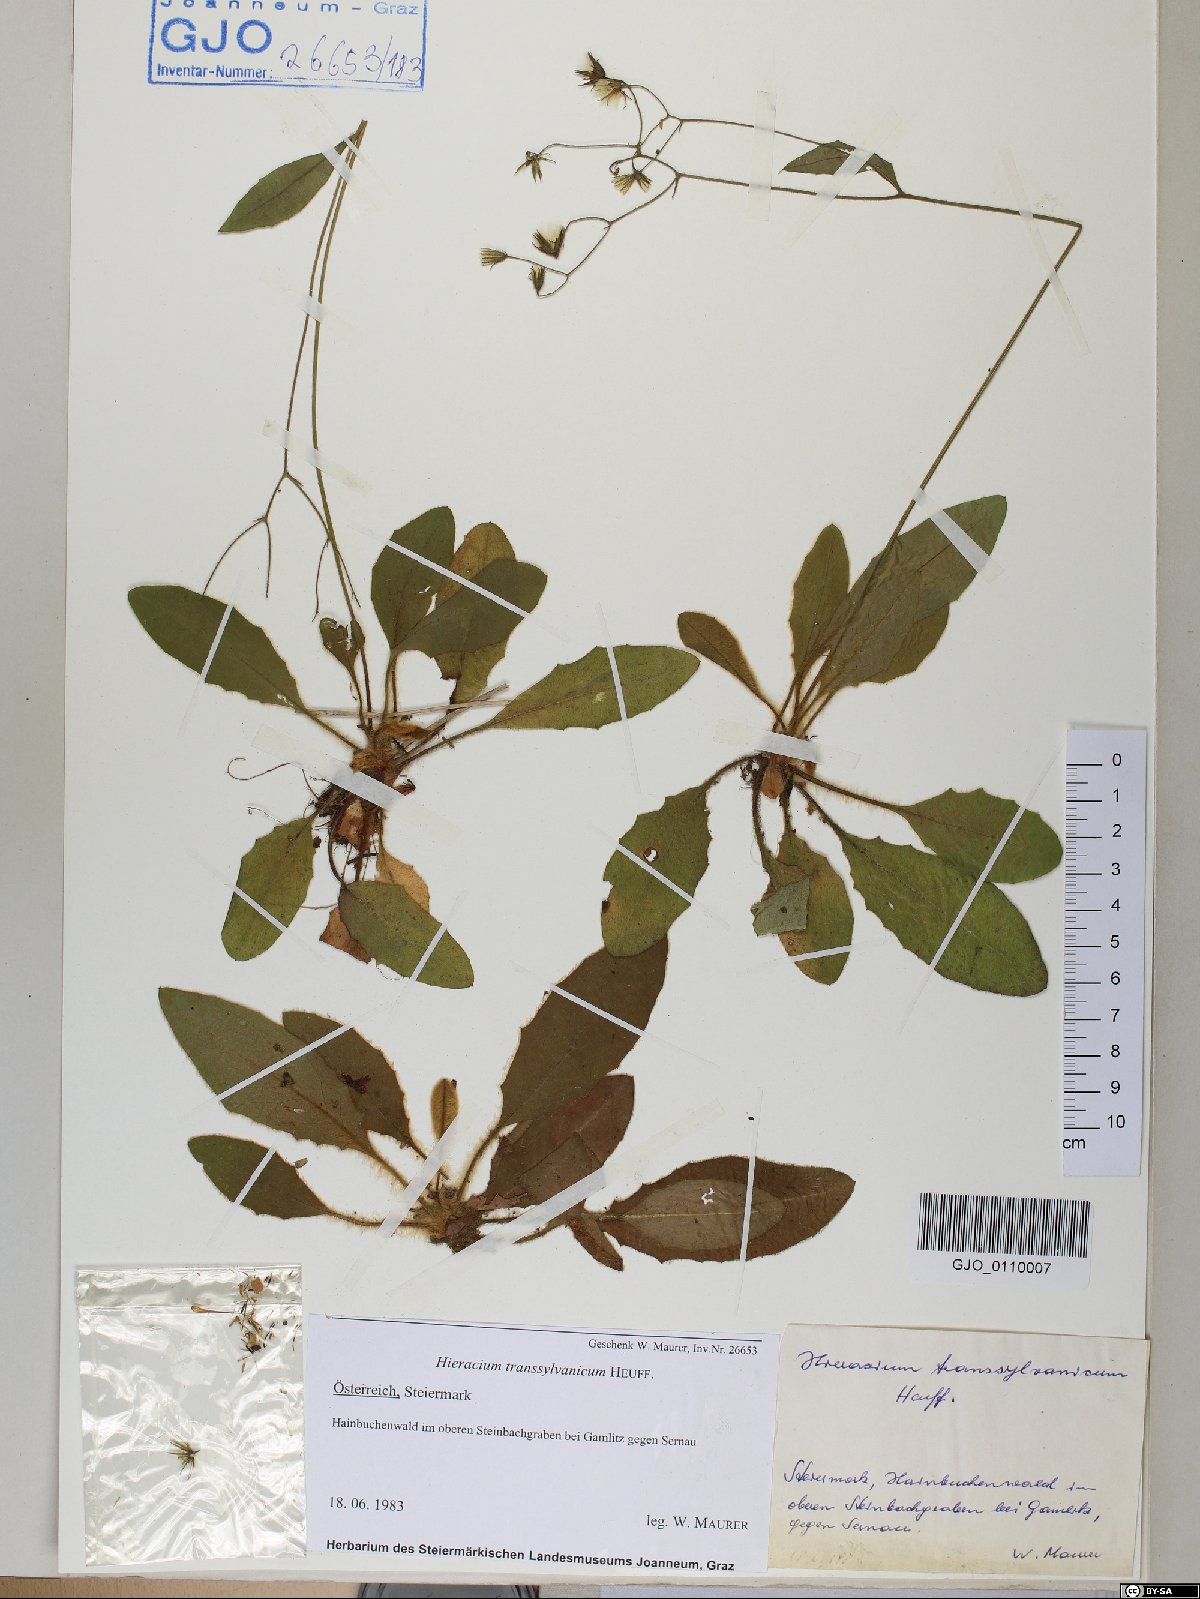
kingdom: Plantae
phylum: Tracheophyta
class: Magnoliopsida
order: Asterales
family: Asteraceae
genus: Hieracium
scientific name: Hieracium transylvanicum
